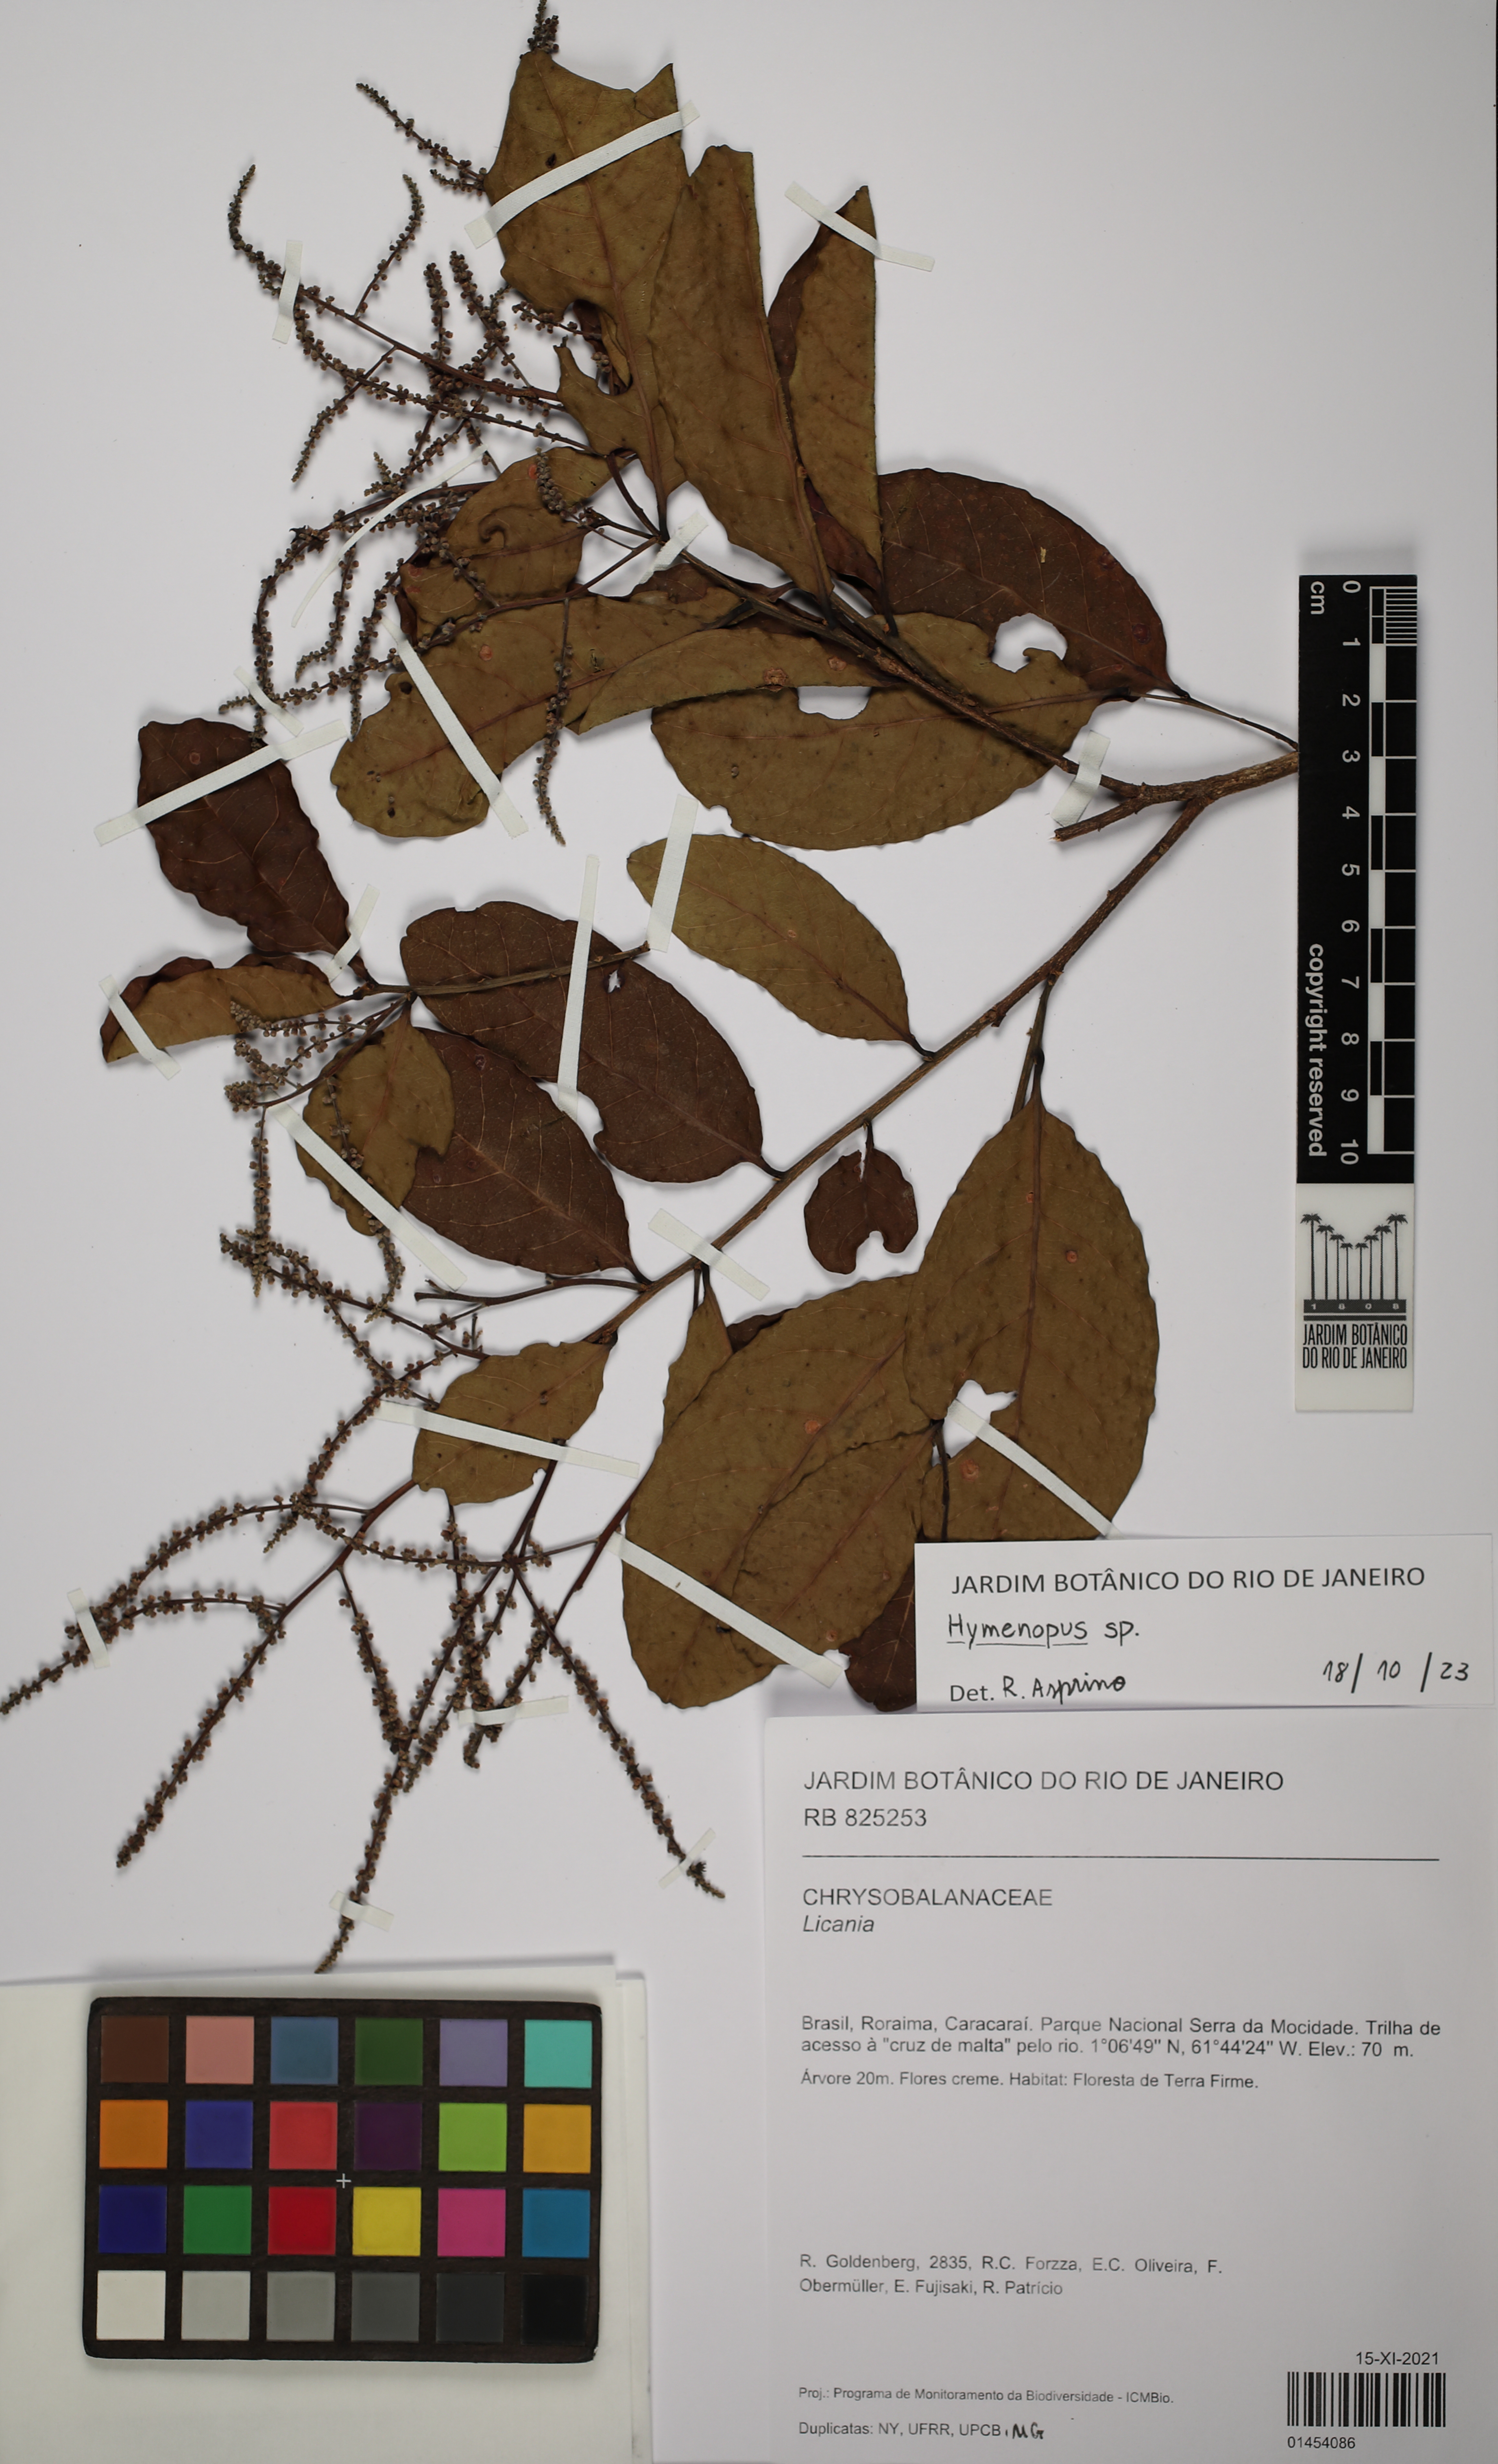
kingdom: Plantae
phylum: Tracheophyta
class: Magnoliopsida
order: Malpighiales
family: Chrysobalanaceae
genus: Hymenopus
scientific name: Hymenopus
